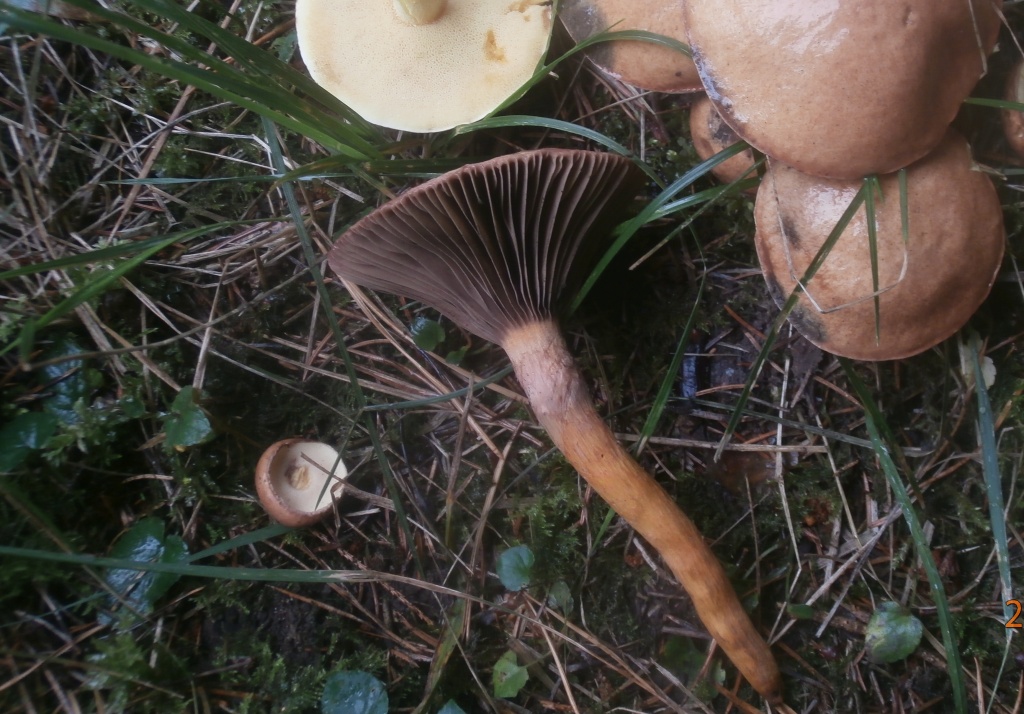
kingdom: Fungi
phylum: Basidiomycota
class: Agaricomycetes
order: Boletales
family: Gomphidiaceae
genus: Chroogomphus
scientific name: Chroogomphus rutilus
